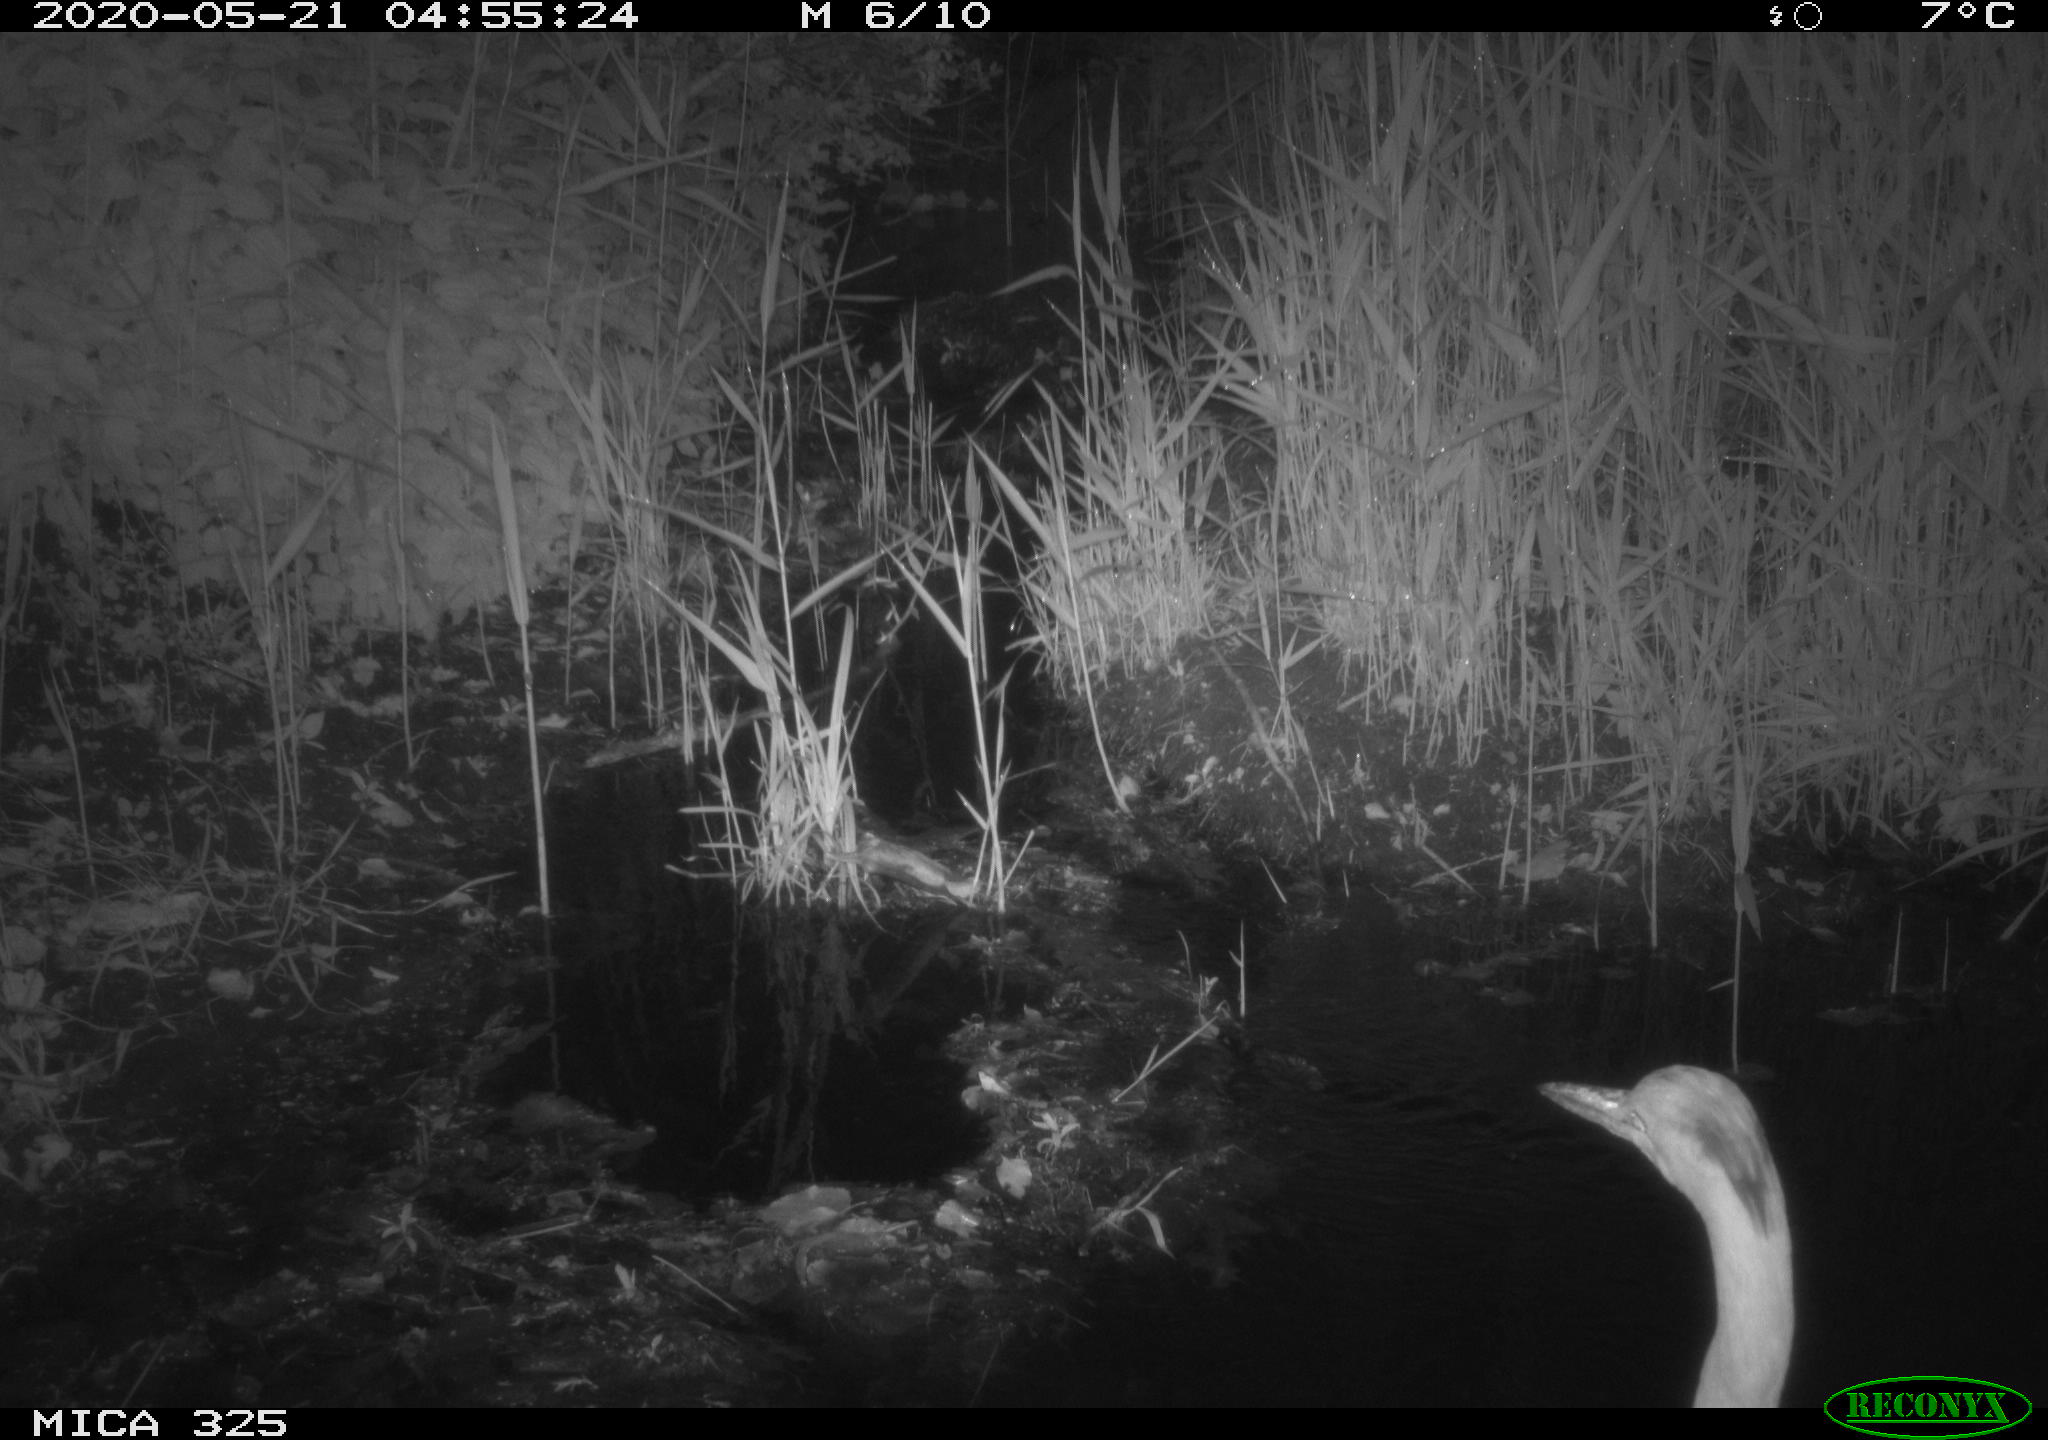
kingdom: Animalia
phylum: Chordata
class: Aves
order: Pelecaniformes
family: Ardeidae
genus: Ardea
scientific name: Ardea cinerea
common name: Grey heron
